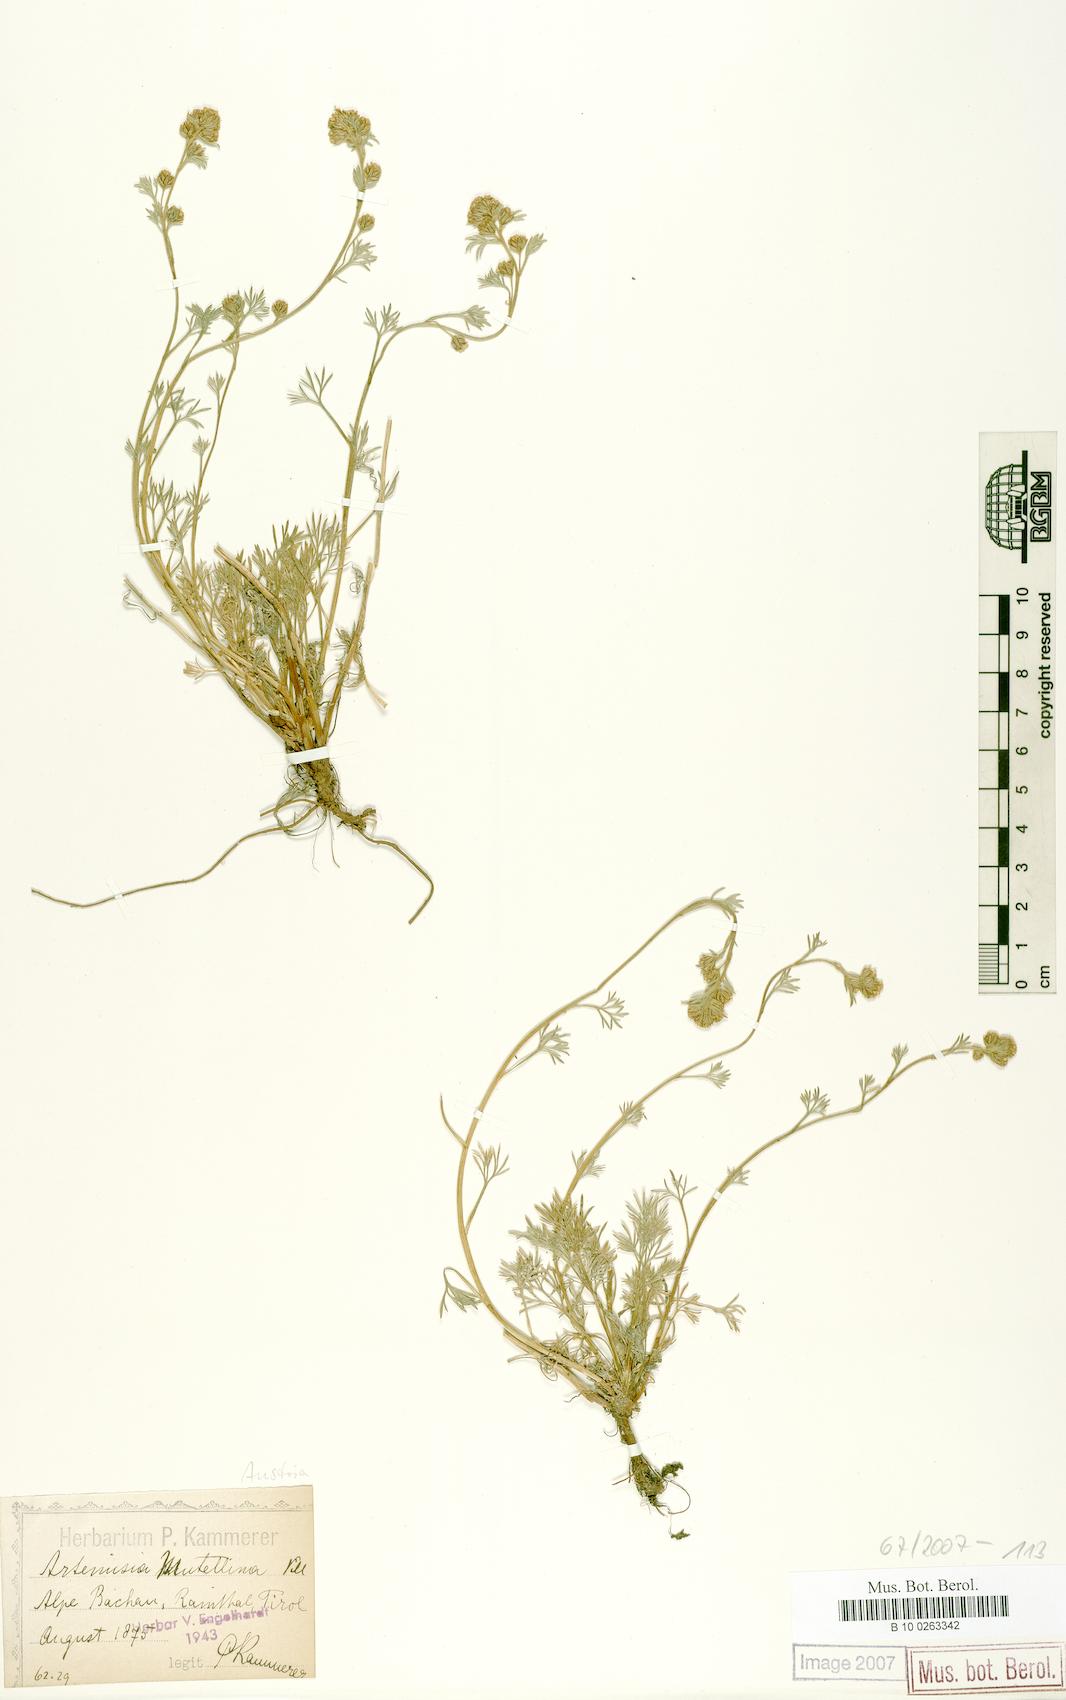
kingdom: Plantae
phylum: Tracheophyta
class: Magnoliopsida
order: Asterales
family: Asteraceae
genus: Artemisia
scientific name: Artemisia mutellina
